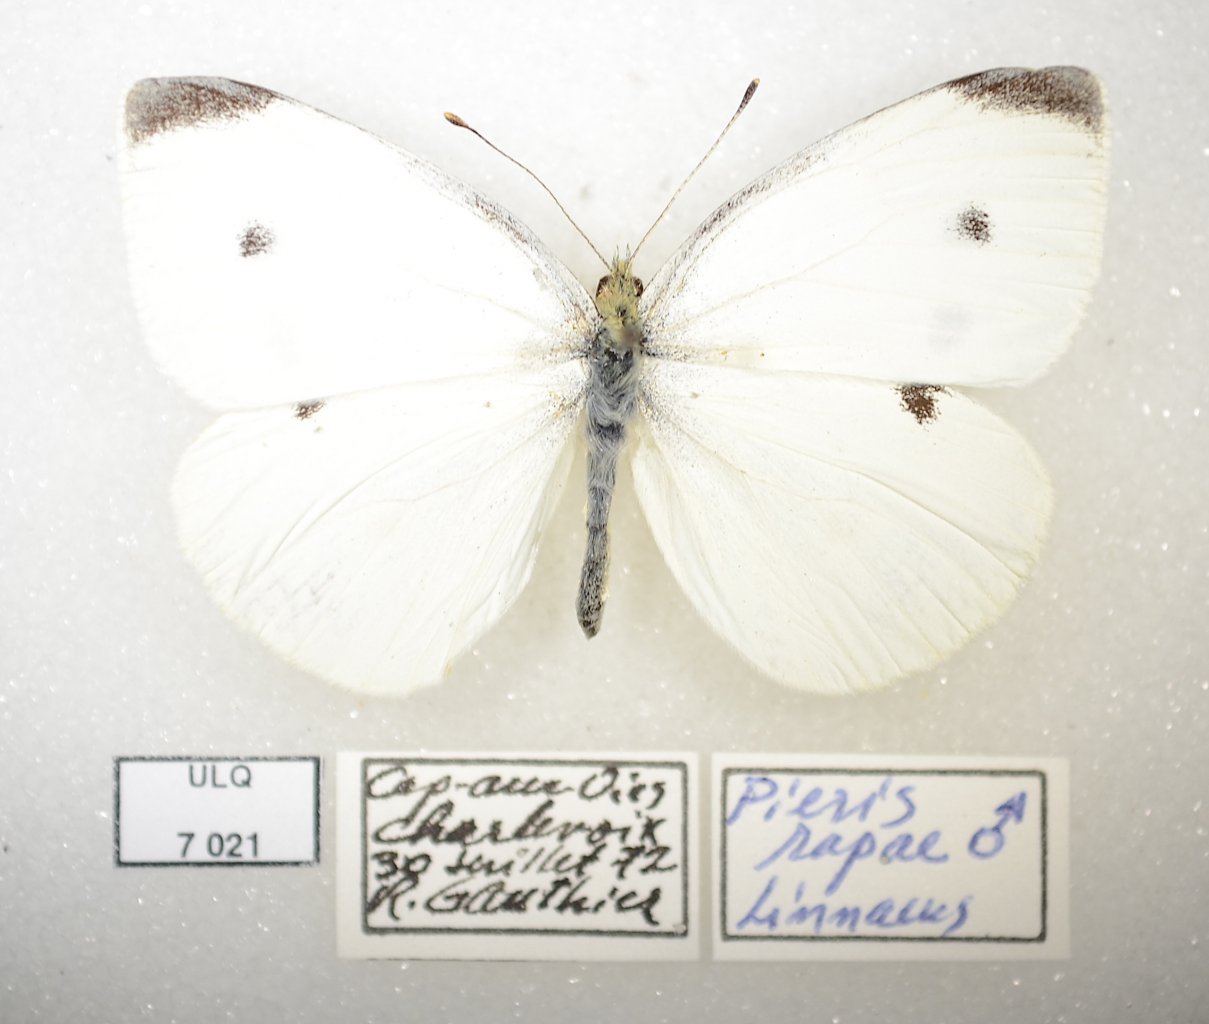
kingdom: Animalia
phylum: Arthropoda
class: Insecta
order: Lepidoptera
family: Pieridae
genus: Pieris
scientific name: Pieris rapae
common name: Cabbage White
